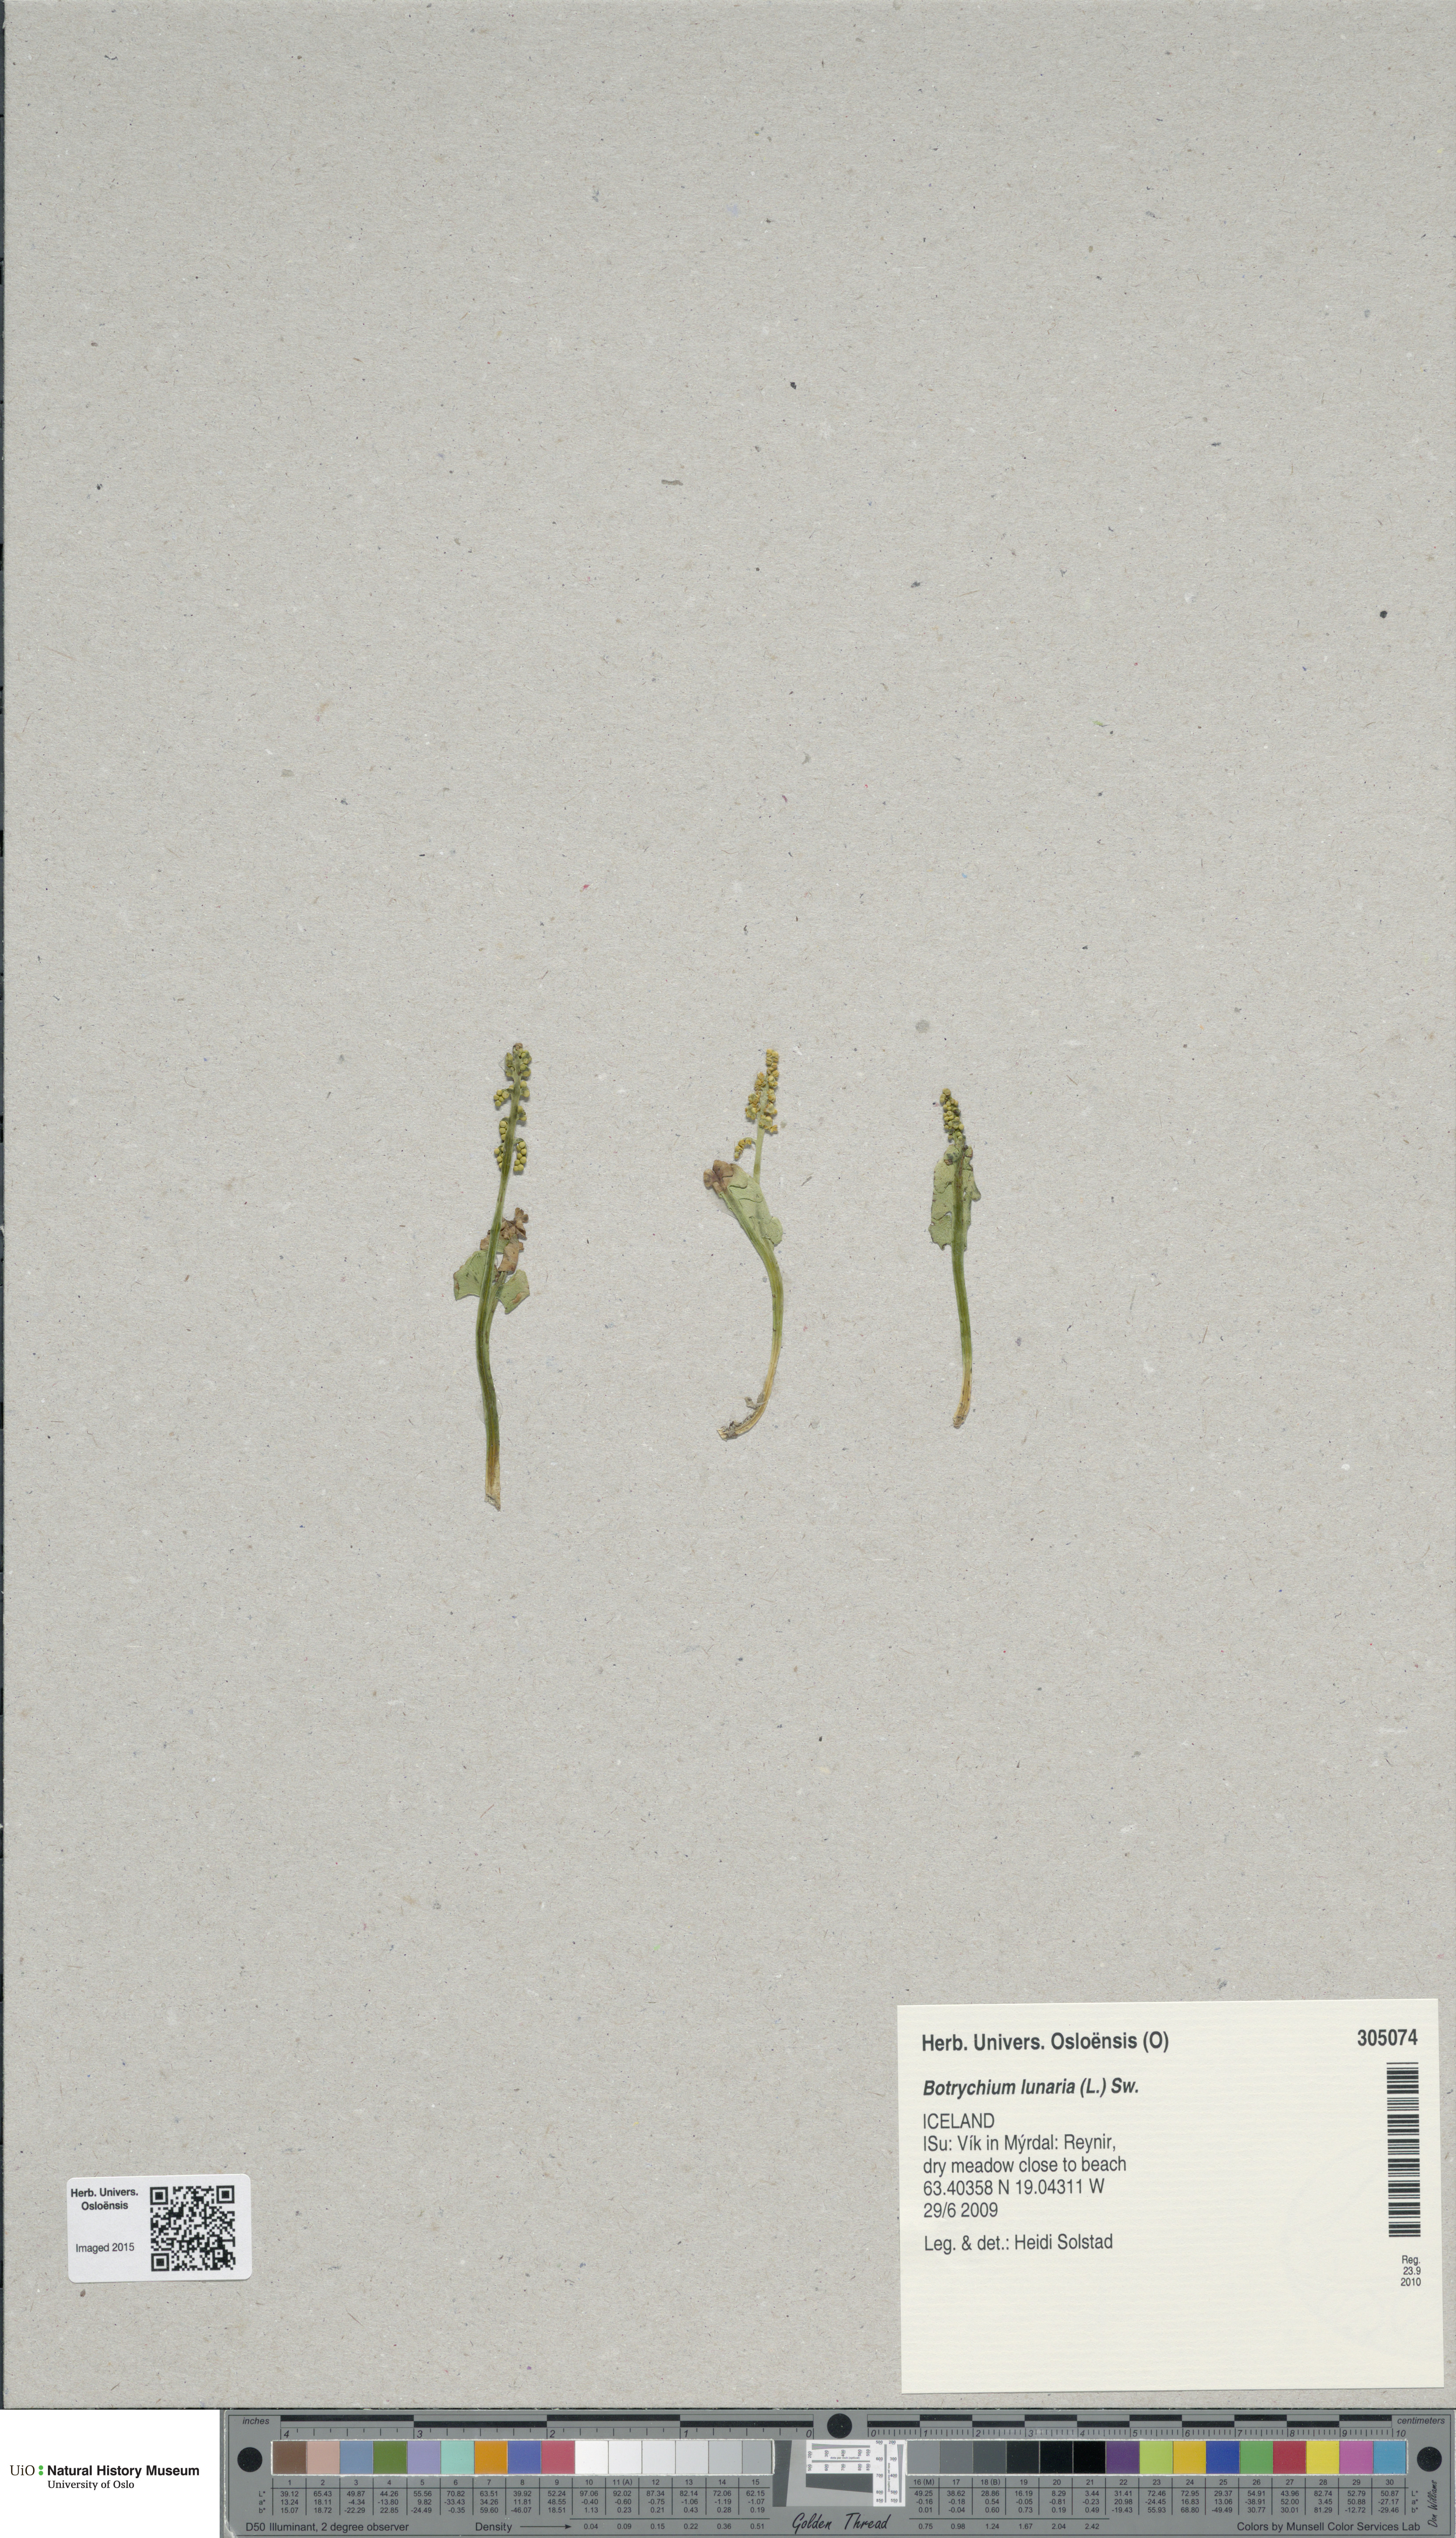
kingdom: Plantae
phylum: Tracheophyta
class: Polypodiopsida
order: Ophioglossales
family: Ophioglossaceae
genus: Botrychium
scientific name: Botrychium lunaria
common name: Moonwort
